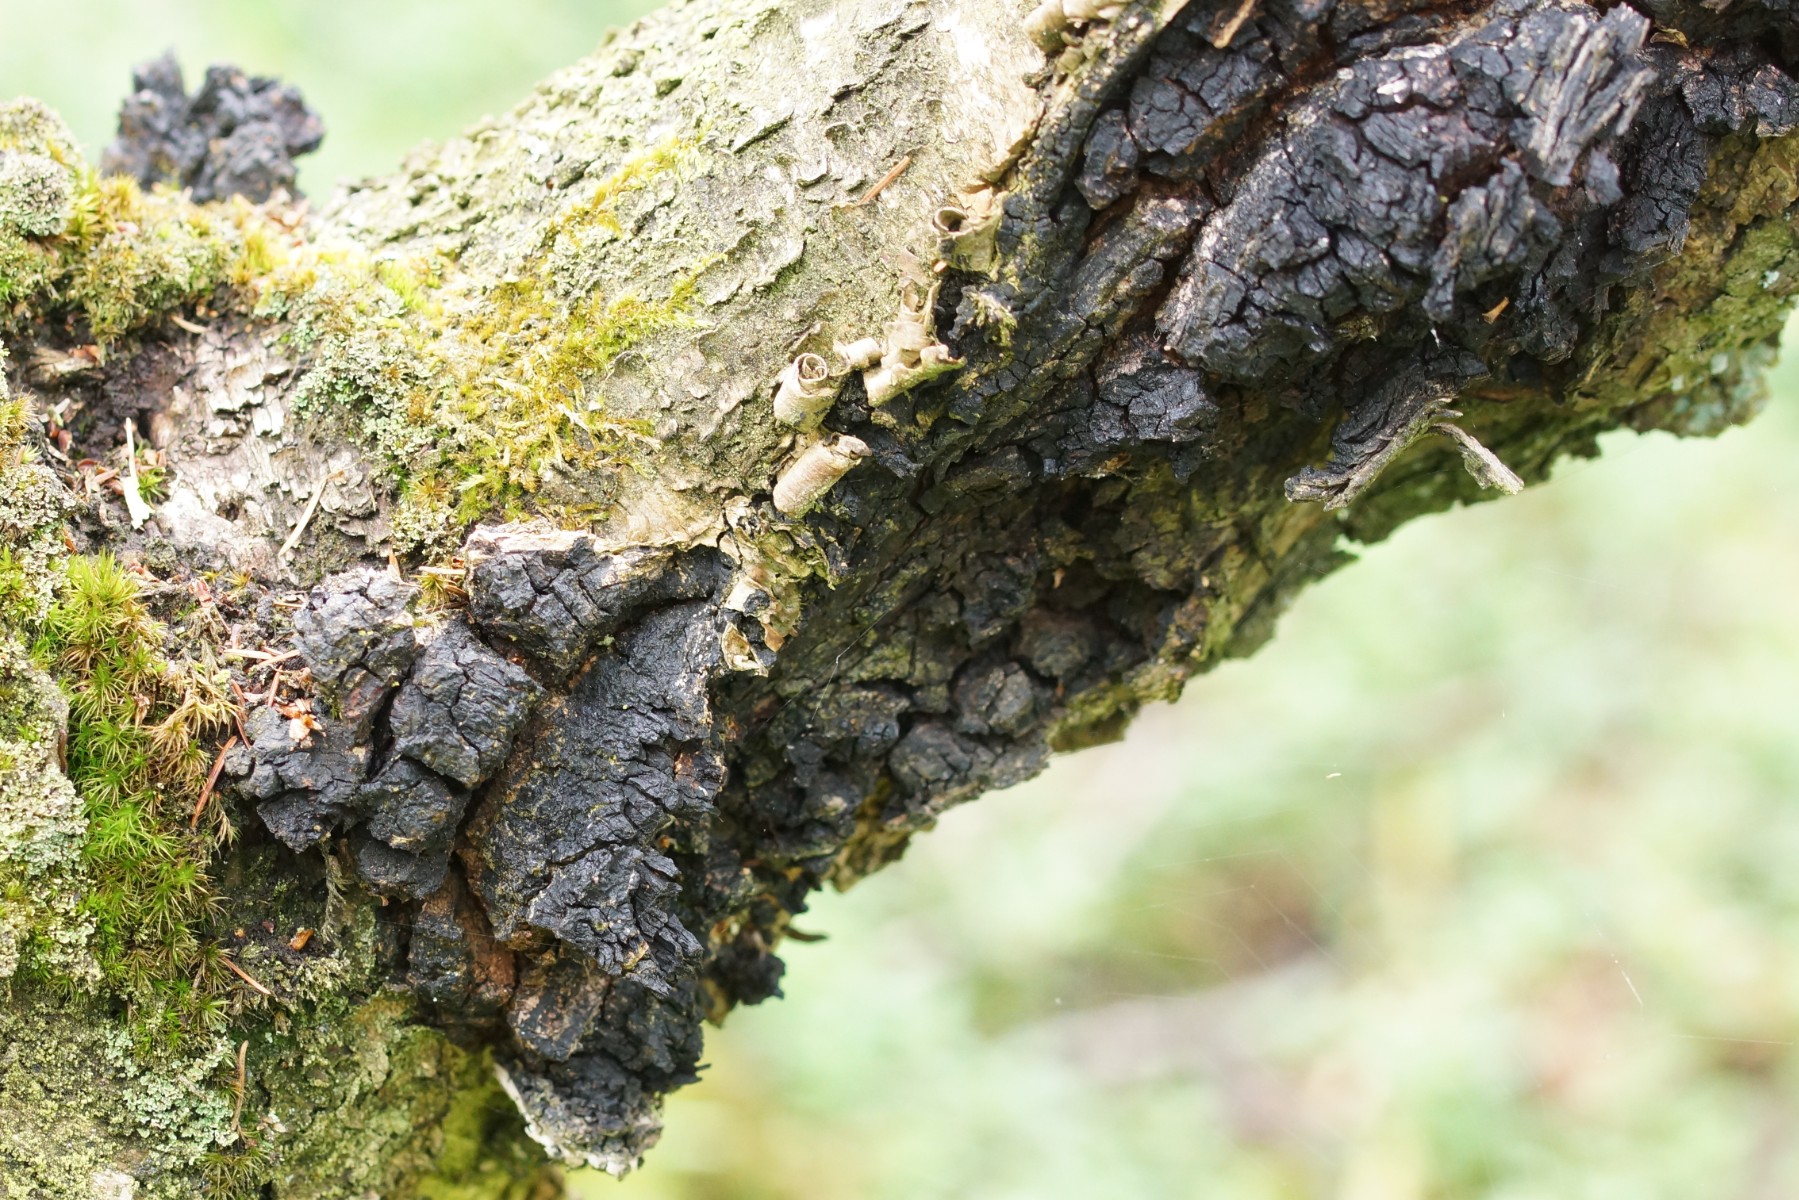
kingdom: Fungi
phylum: Basidiomycota
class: Agaricomycetes
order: Hymenochaetales
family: Hymenochaetaceae
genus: Inonotus
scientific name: Inonotus obliquus
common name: birke-spejlporesvamp
